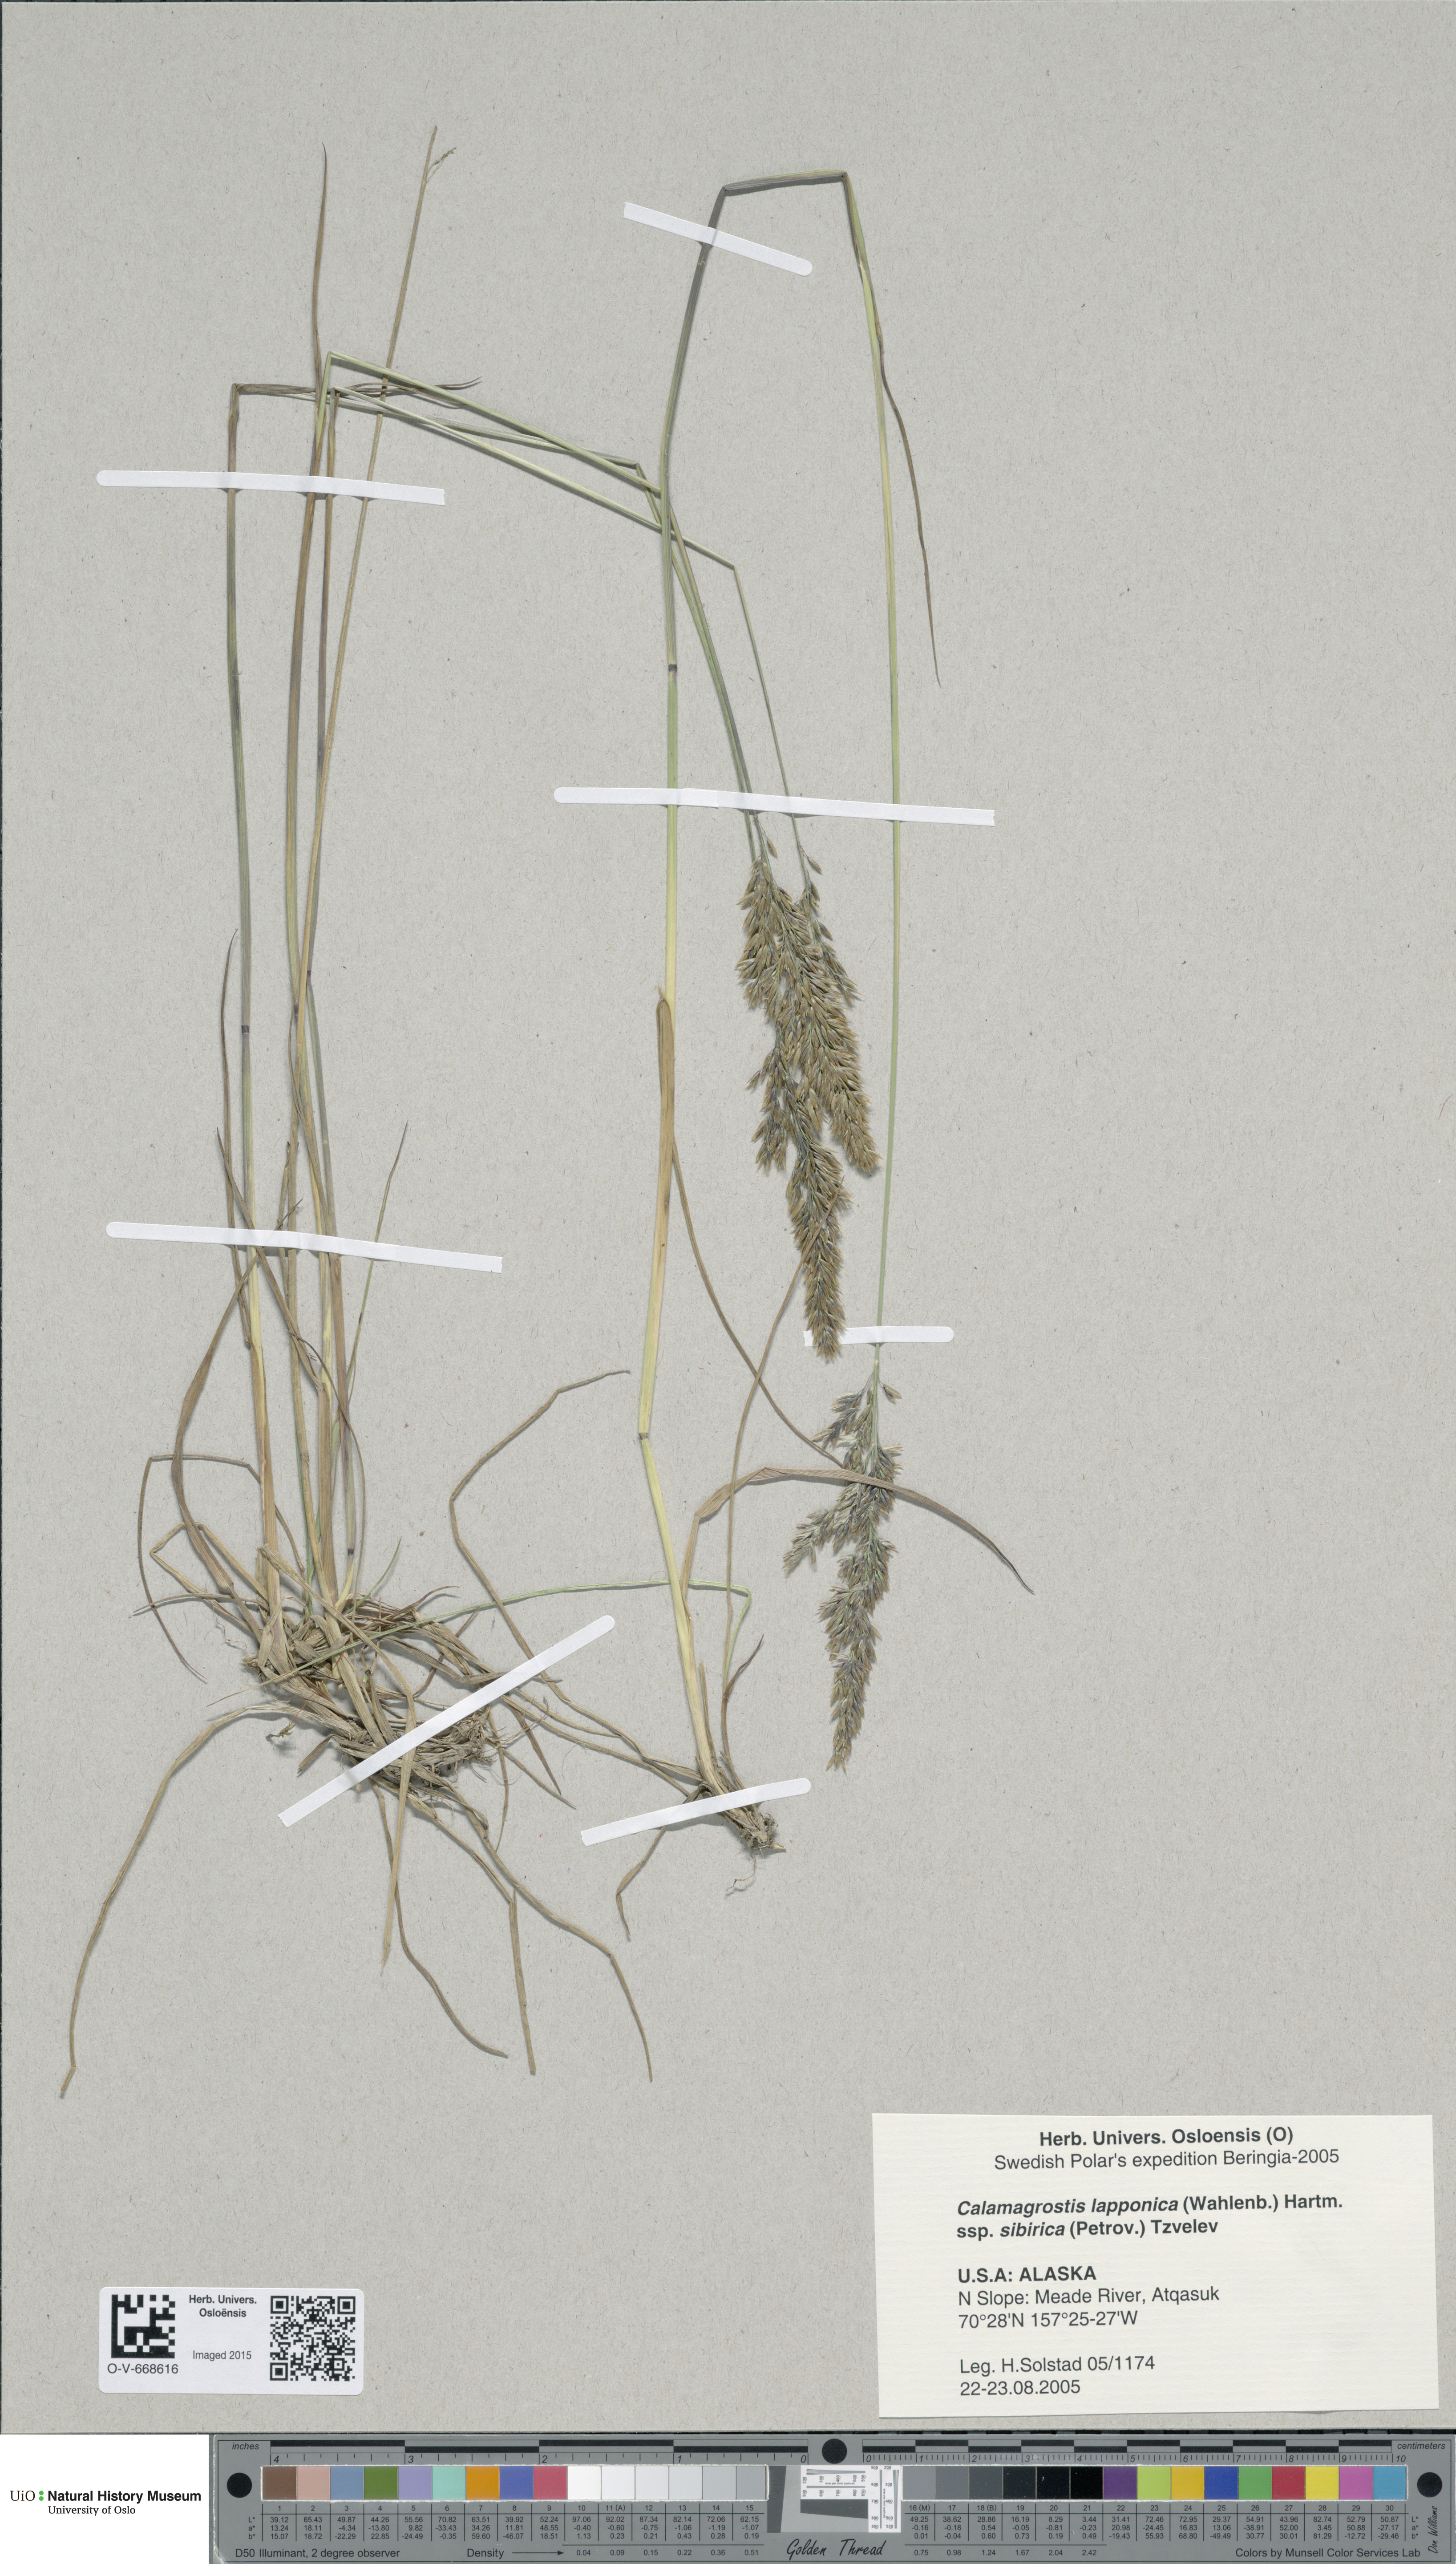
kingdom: Plantae
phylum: Tracheophyta
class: Liliopsida
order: Poales
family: Poaceae
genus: Calamagrostis
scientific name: Calamagrostis lapponica
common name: Lapland reedgrass
